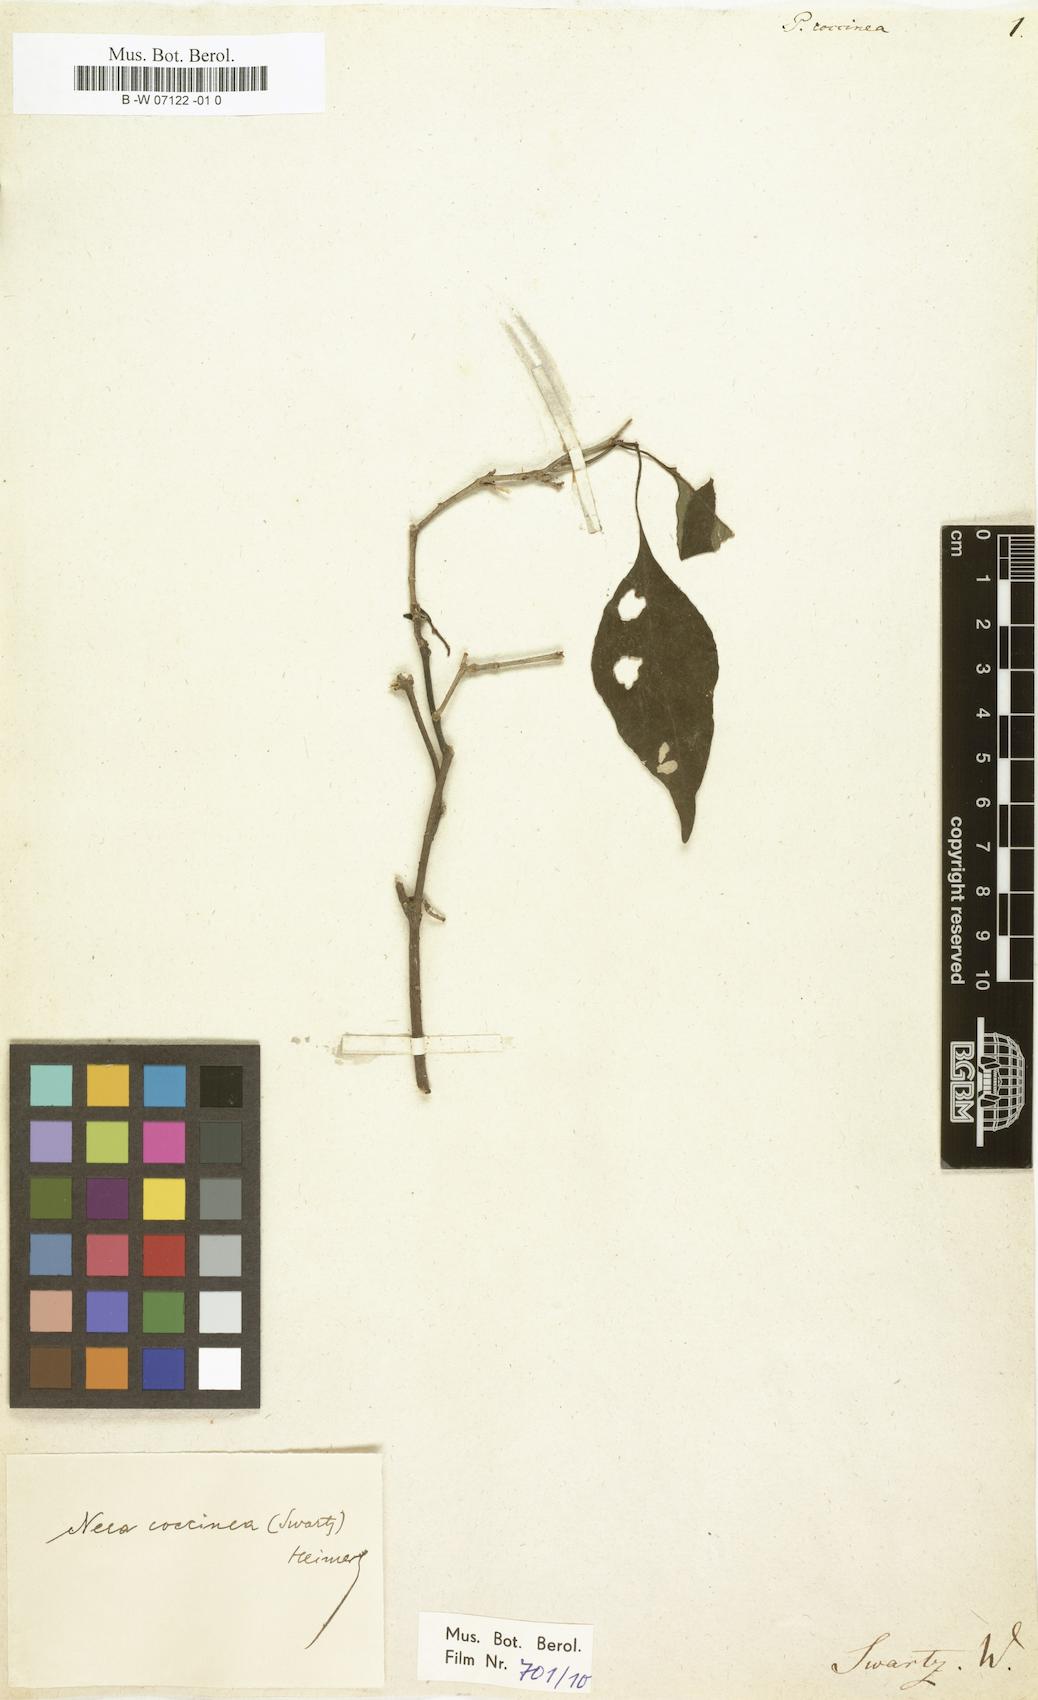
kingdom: Plantae
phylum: Tracheophyta
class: Magnoliopsida
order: Caryophyllales
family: Nyctaginaceae
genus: Neea
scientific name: Neea coccinea
